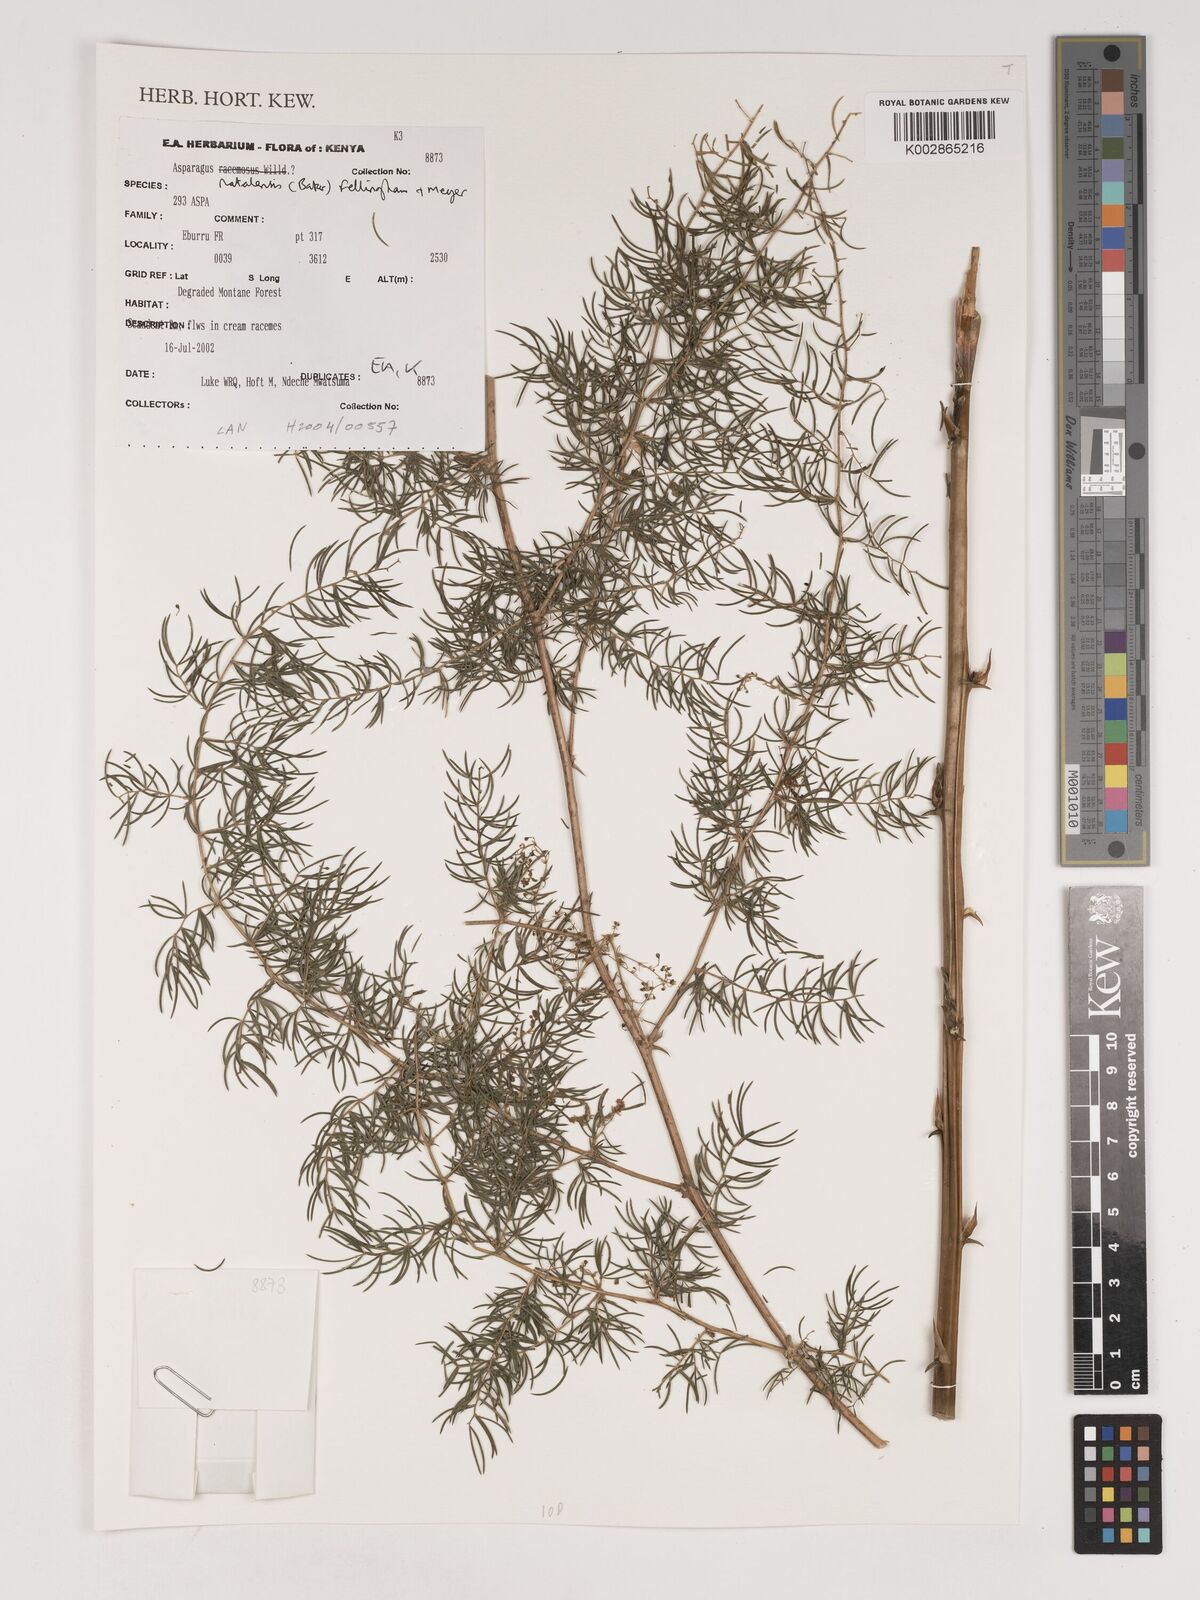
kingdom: Plantae
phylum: Tracheophyta
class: Liliopsida
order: Asparagales
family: Asparagaceae
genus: Asparagus
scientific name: Asparagus natalensis
